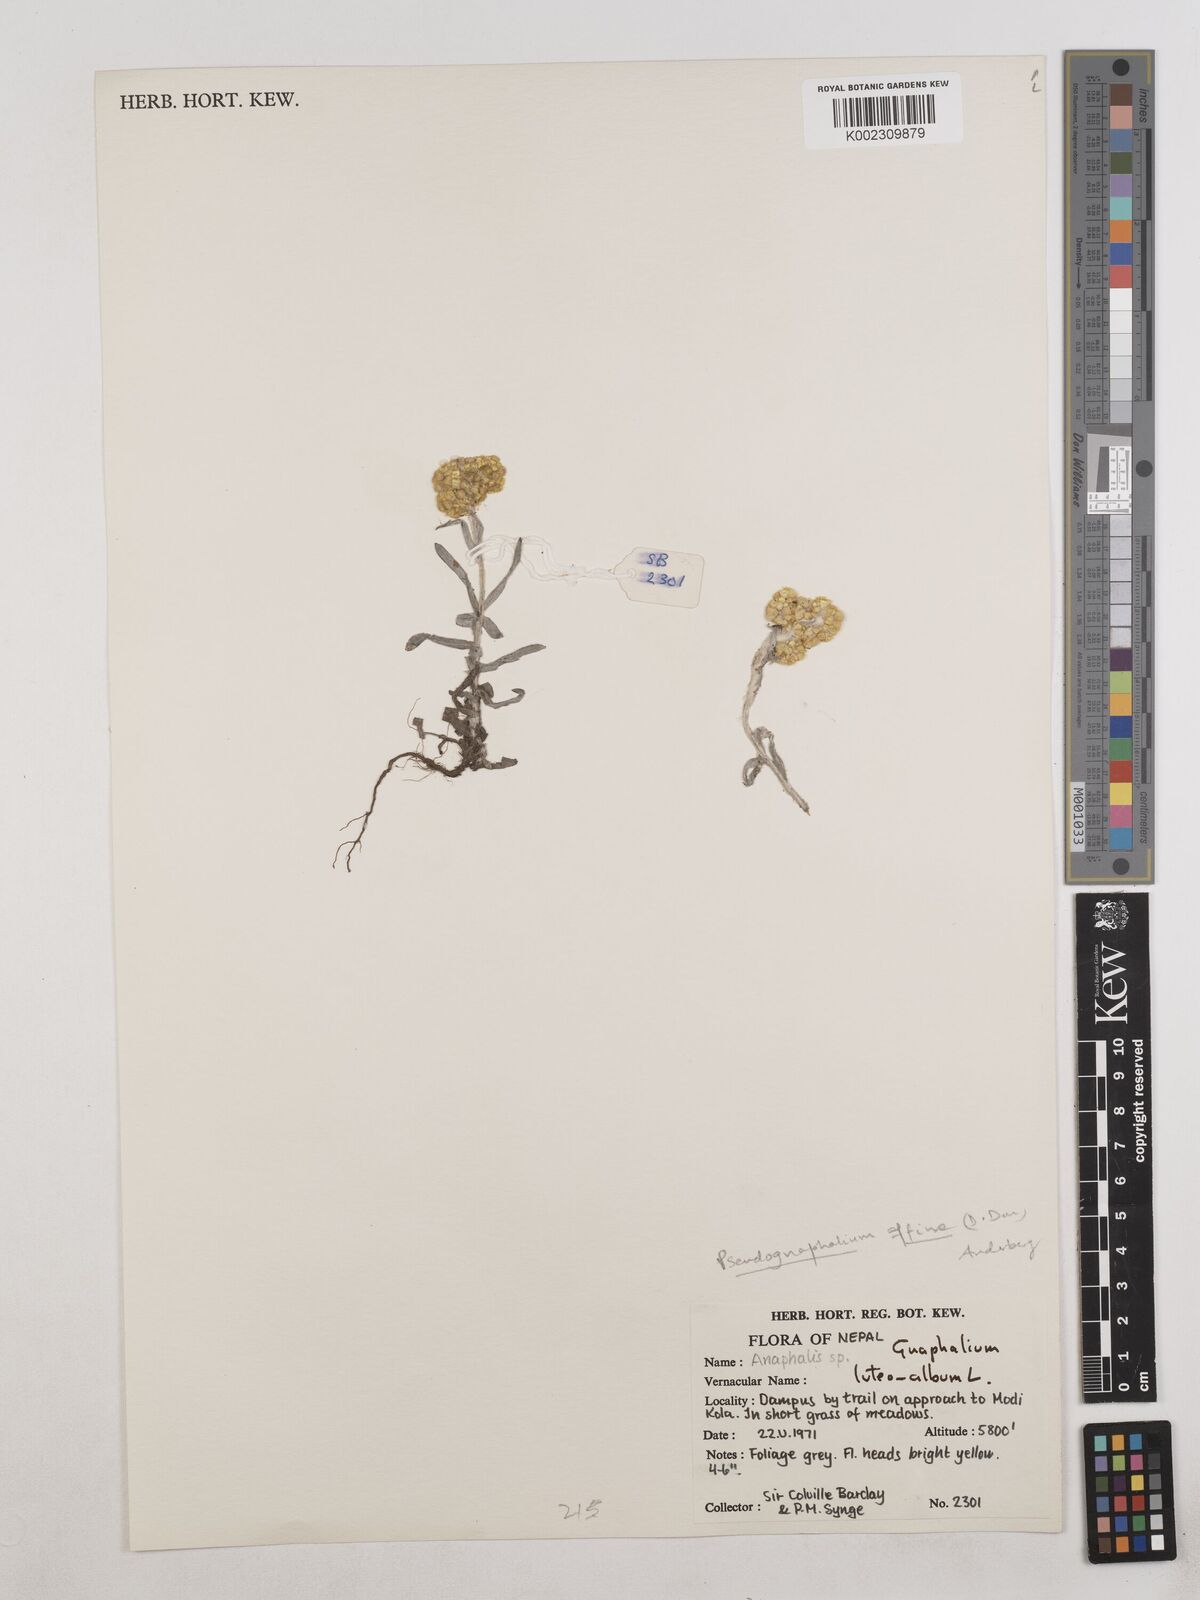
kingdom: Plantae
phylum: Tracheophyta
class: Magnoliopsida
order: Asterales
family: Asteraceae
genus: Pseudognaphalium
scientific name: Pseudognaphalium affine
